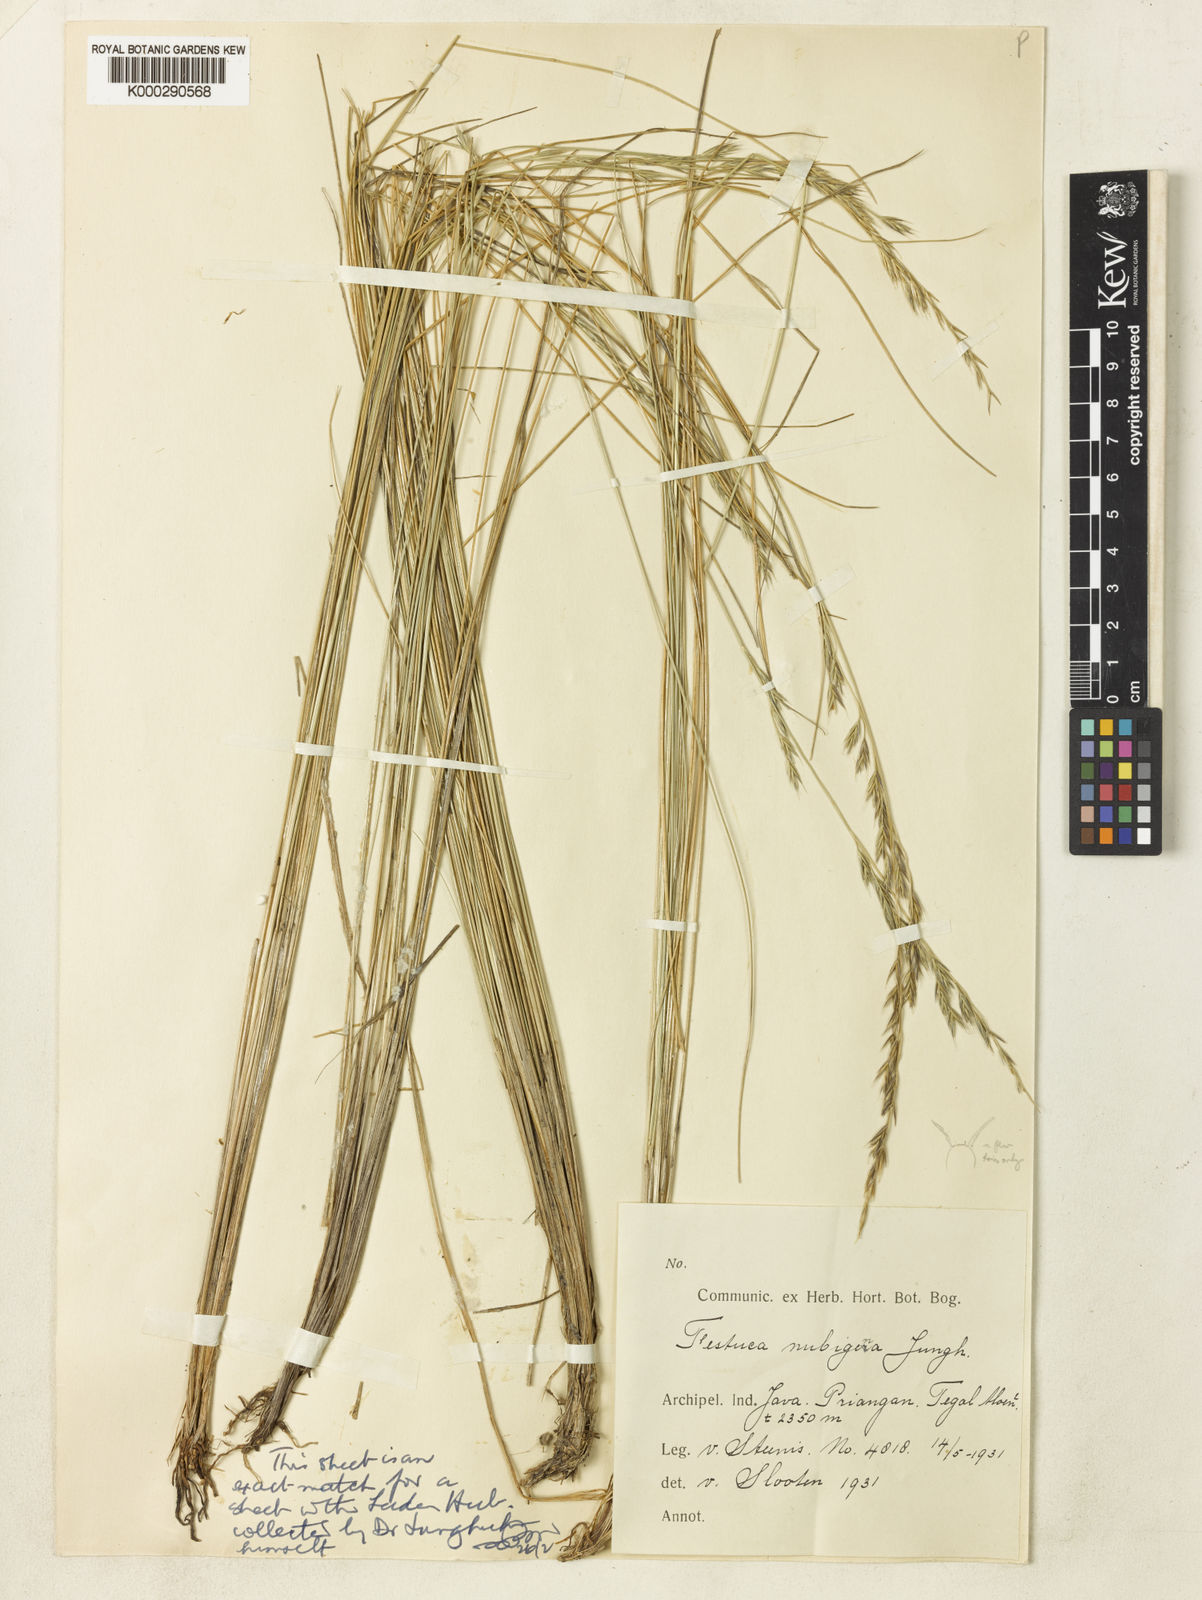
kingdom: Plantae
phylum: Tracheophyta
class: Liliopsida
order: Poales
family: Poaceae
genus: Festuca
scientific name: Festuca nubigena
